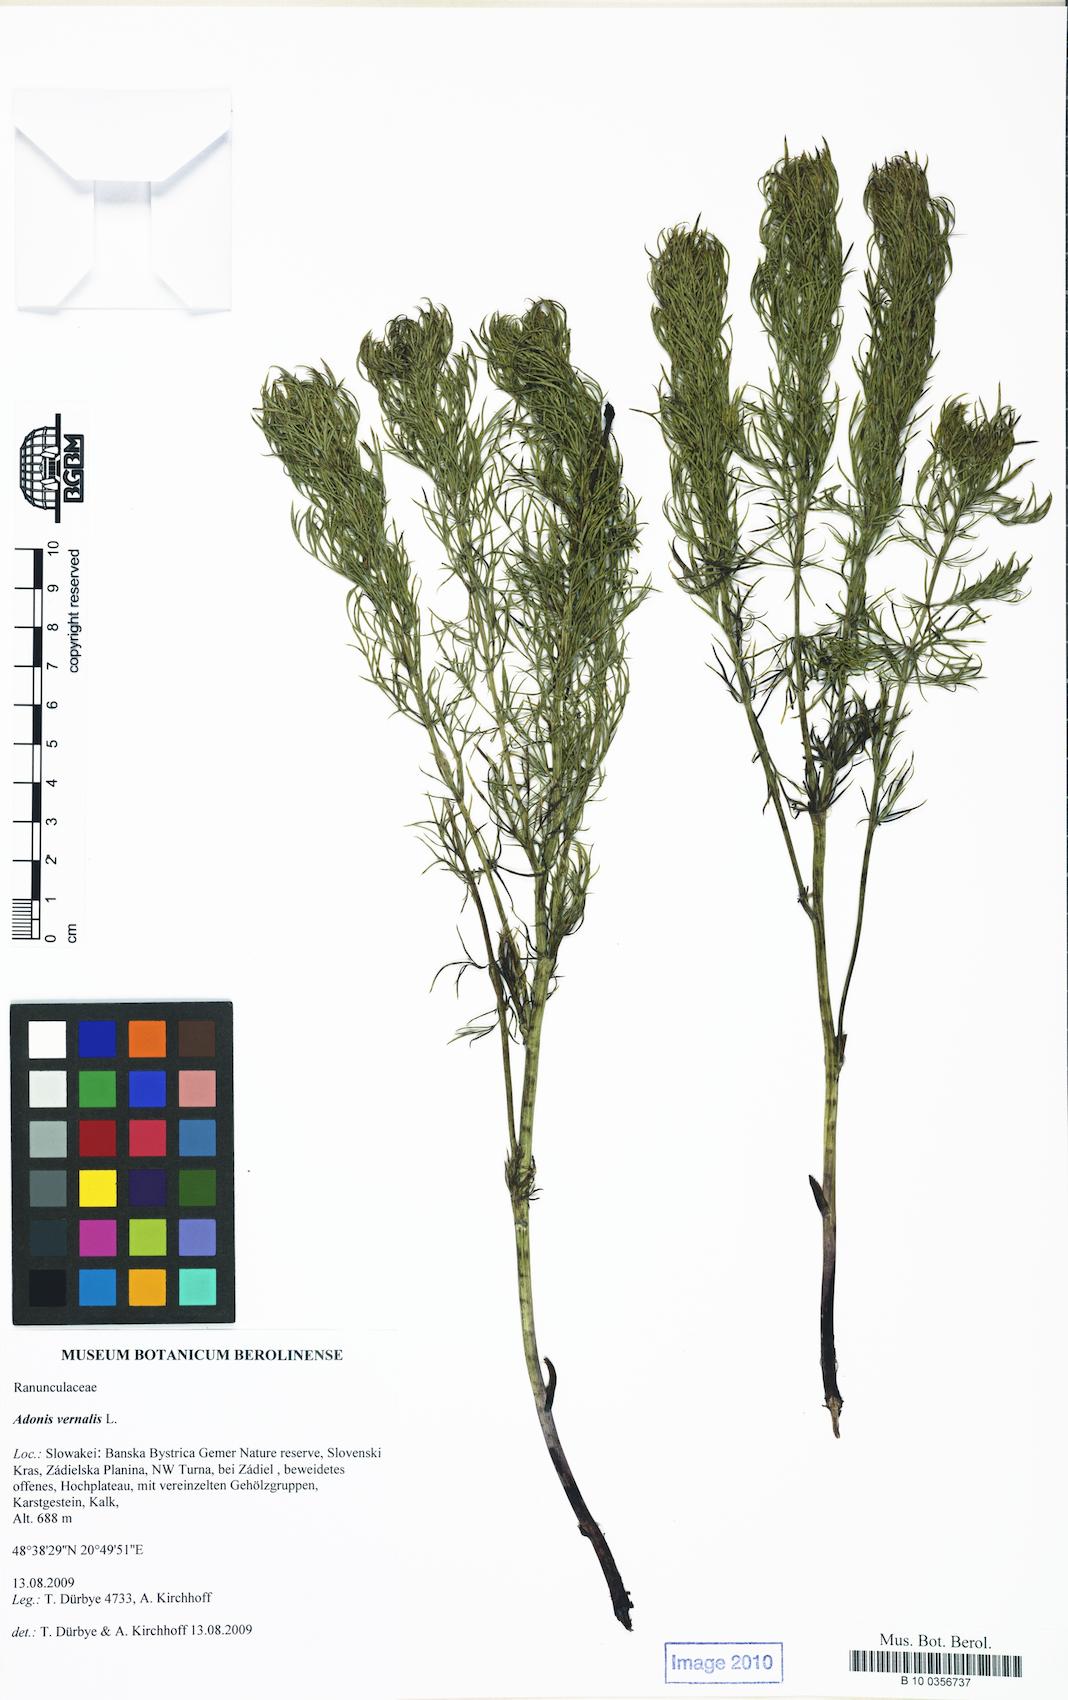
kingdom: Plantae
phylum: Tracheophyta
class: Magnoliopsida
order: Ranunculales
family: Ranunculaceae
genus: Adonis
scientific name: Adonis vernalis
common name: Yellow pheasants-eye
